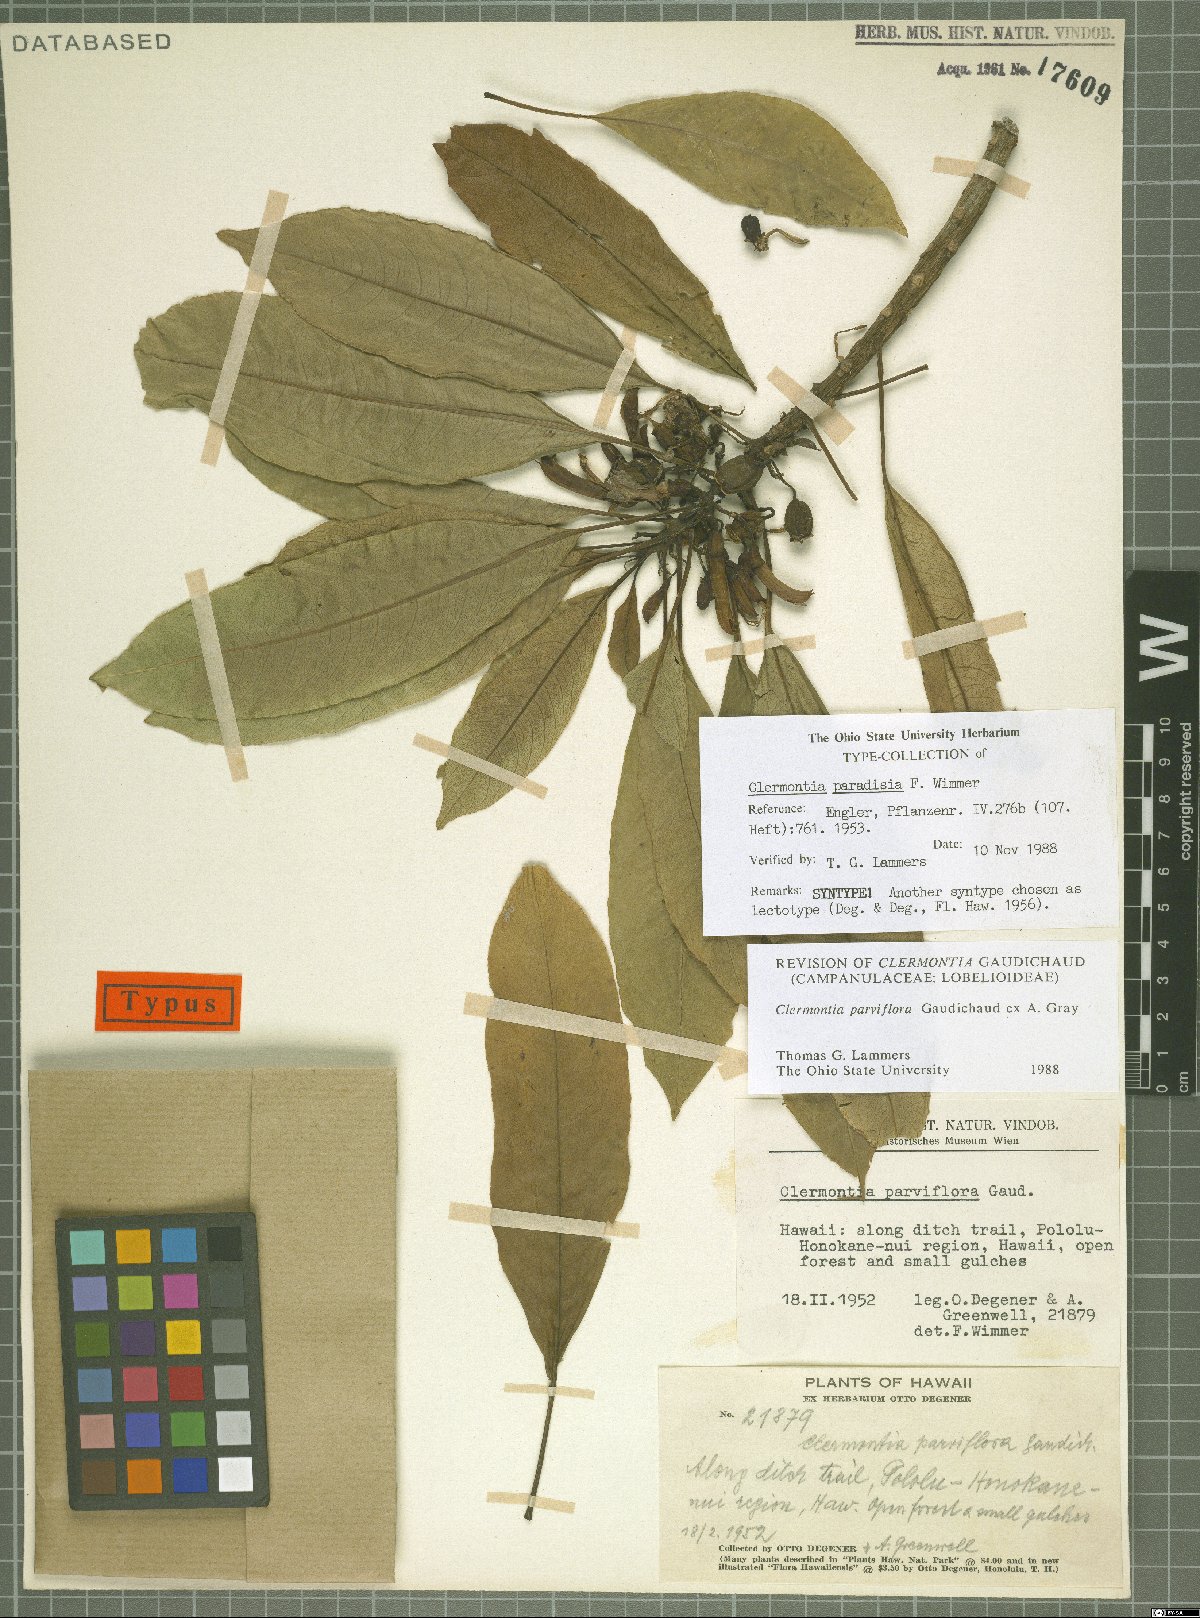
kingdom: Plantae
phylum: Tracheophyta
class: Magnoliopsida
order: Asterales
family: Campanulaceae
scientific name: Campanulaceae
